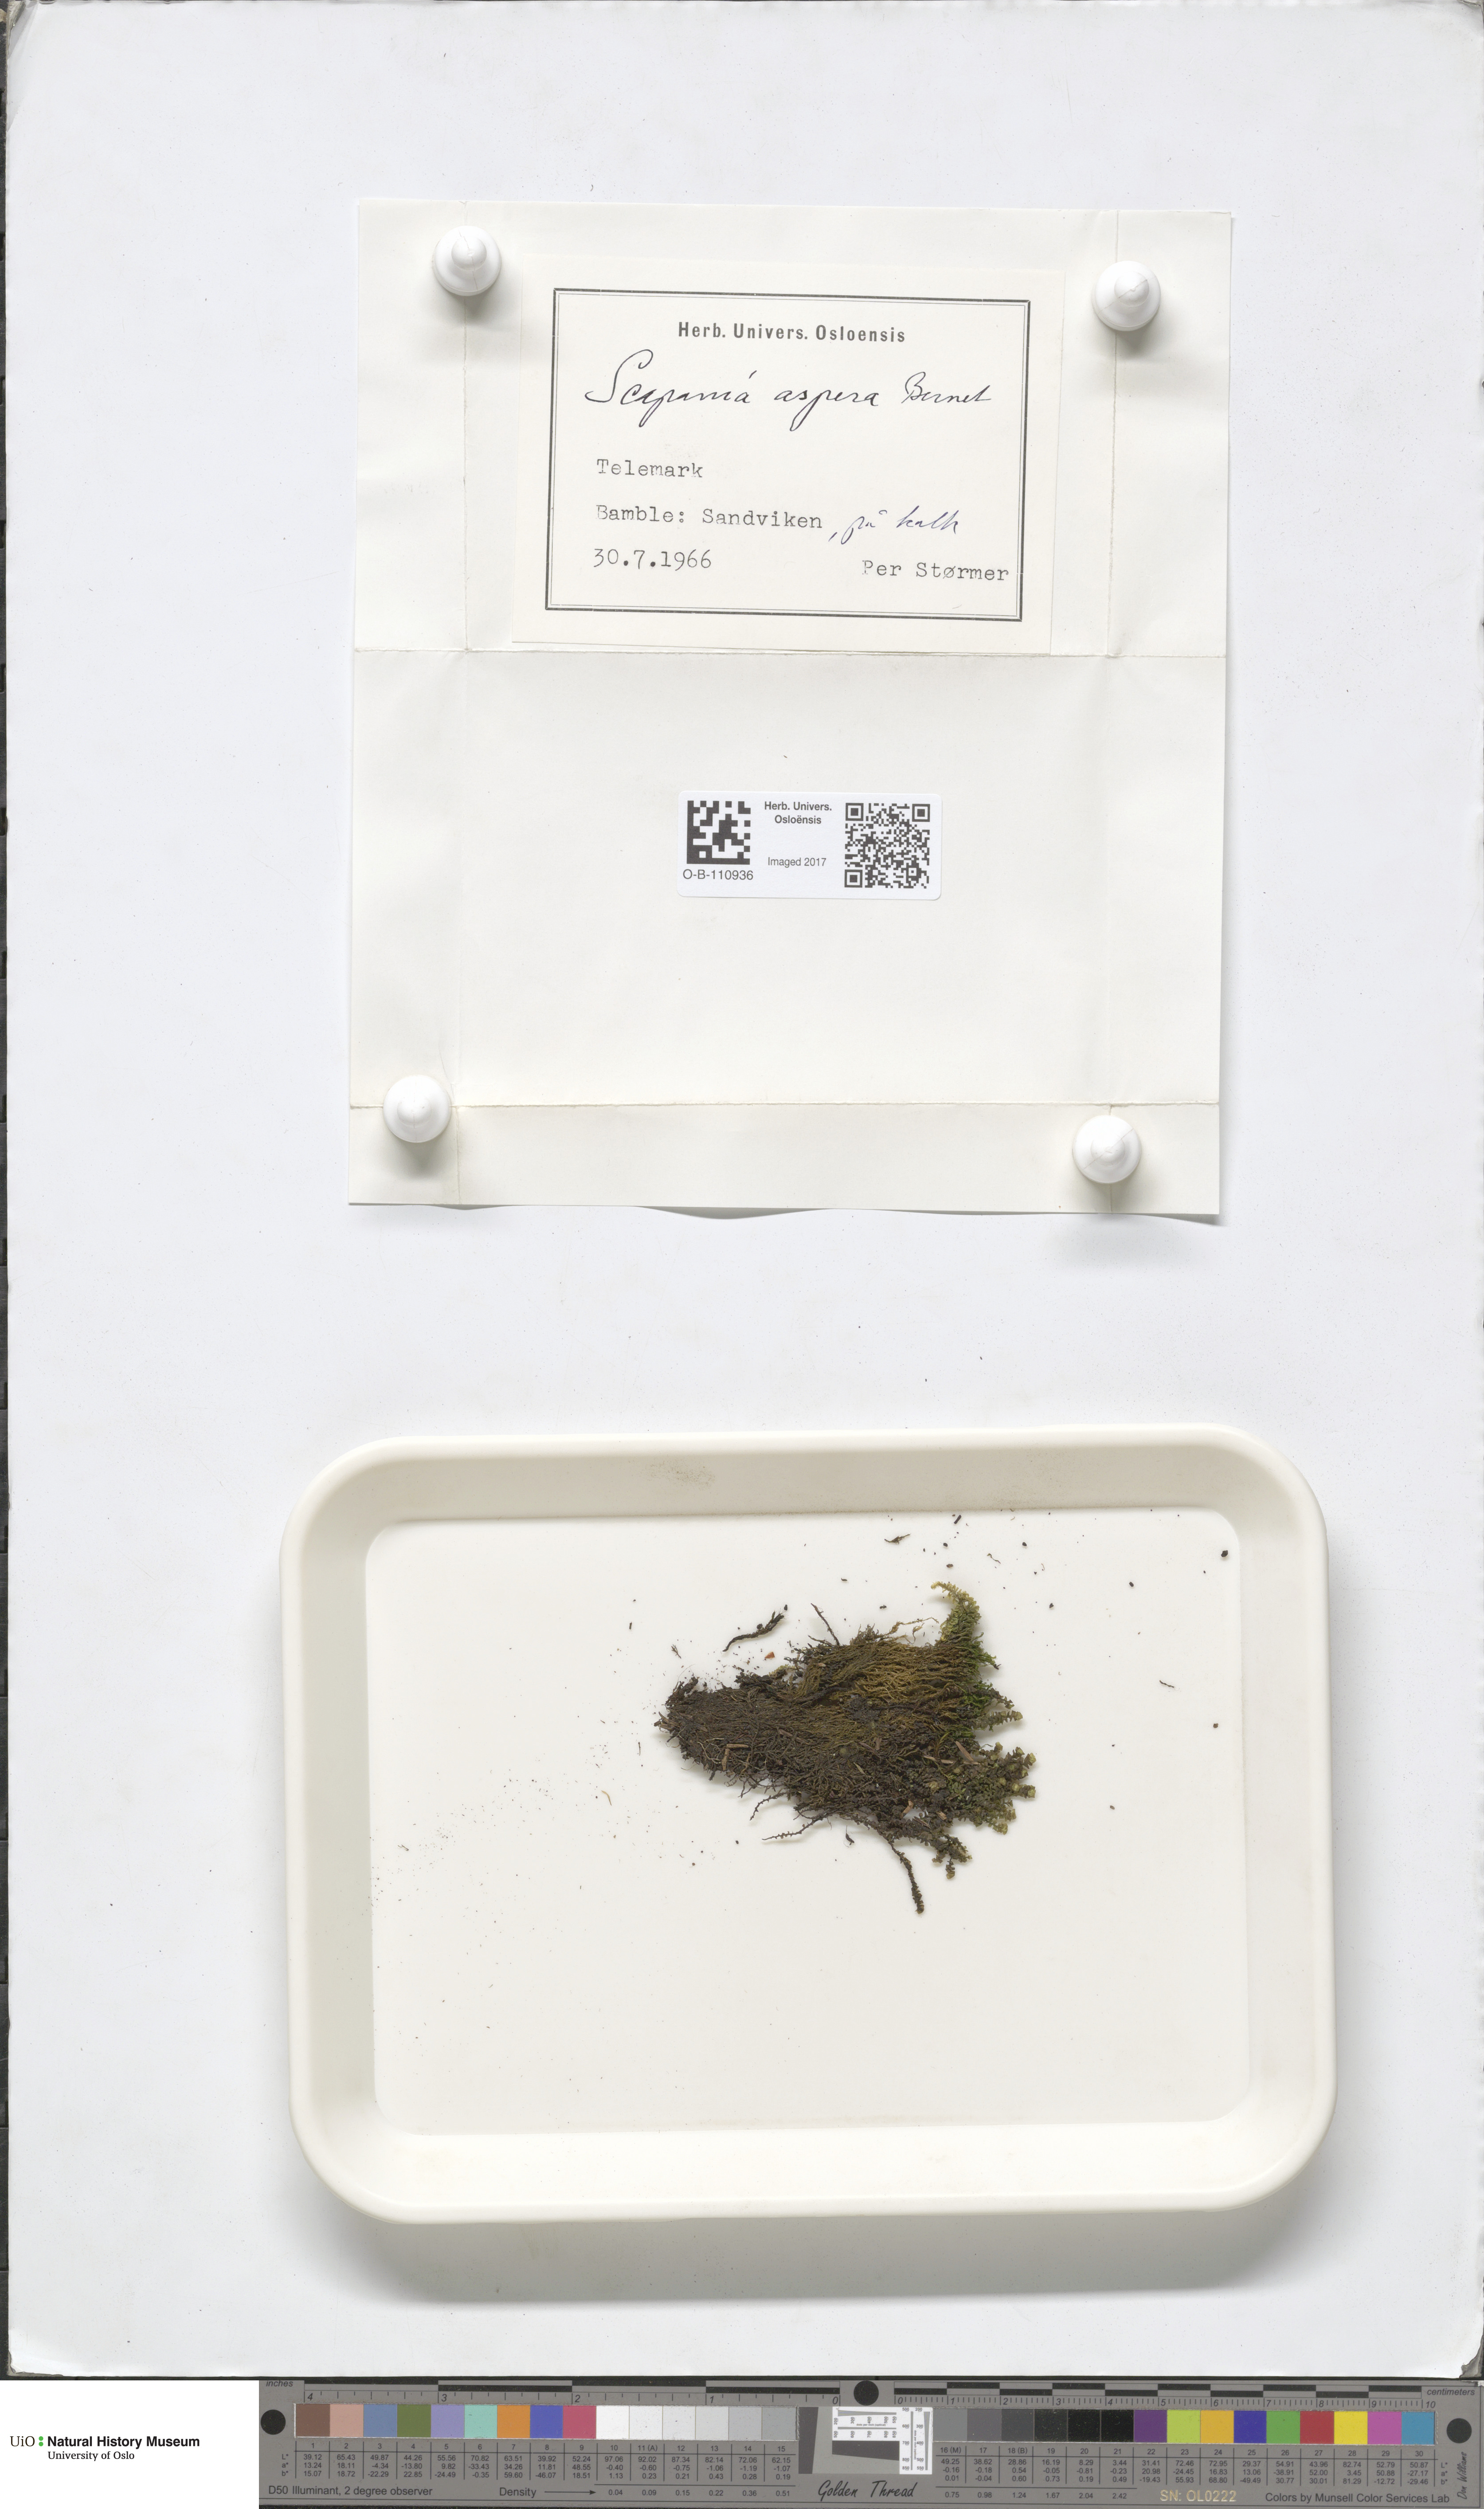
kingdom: Plantae
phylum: Marchantiophyta
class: Jungermanniopsida
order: Jungermanniales
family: Scapaniaceae
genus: Scapania
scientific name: Scapania aspera
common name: Rough earwort
